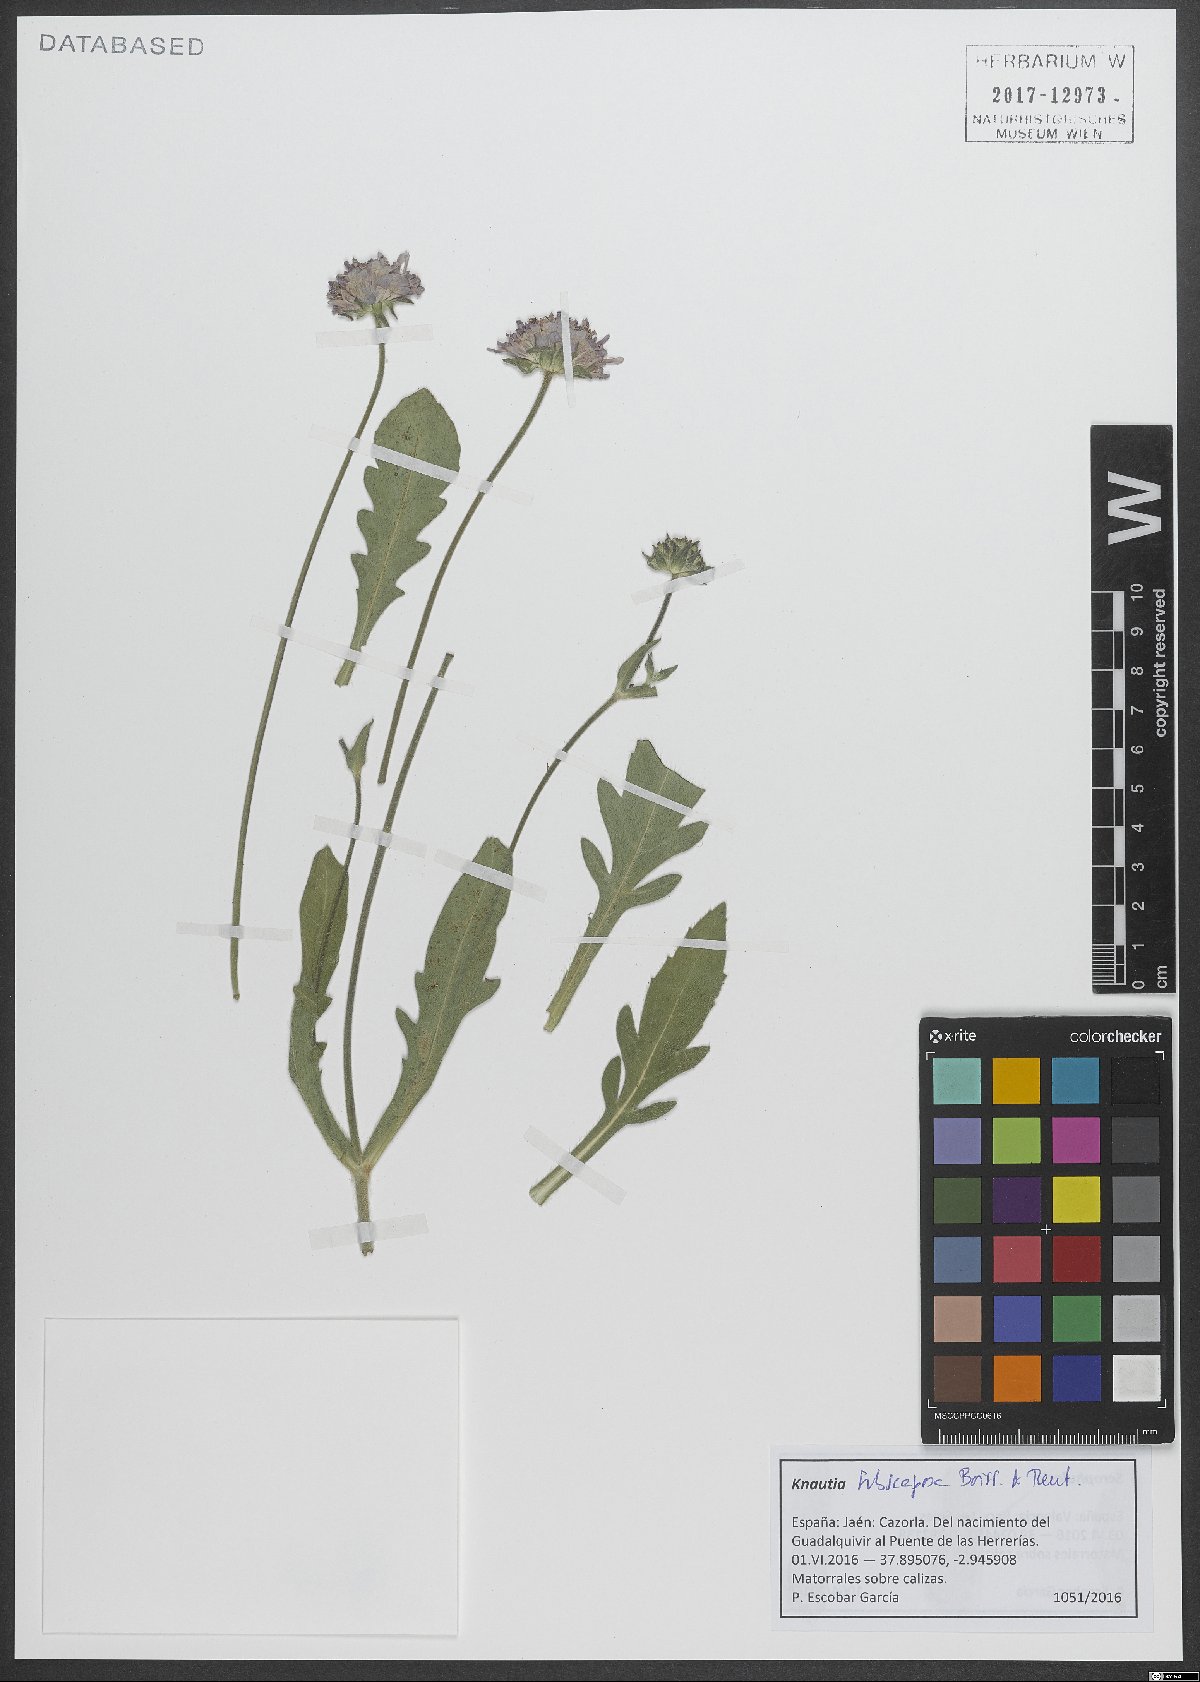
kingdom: Plantae
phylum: Tracheophyta
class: Magnoliopsida
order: Dipsacales
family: Caprifoliaceae
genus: Knautia
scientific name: Knautia subscaposa
